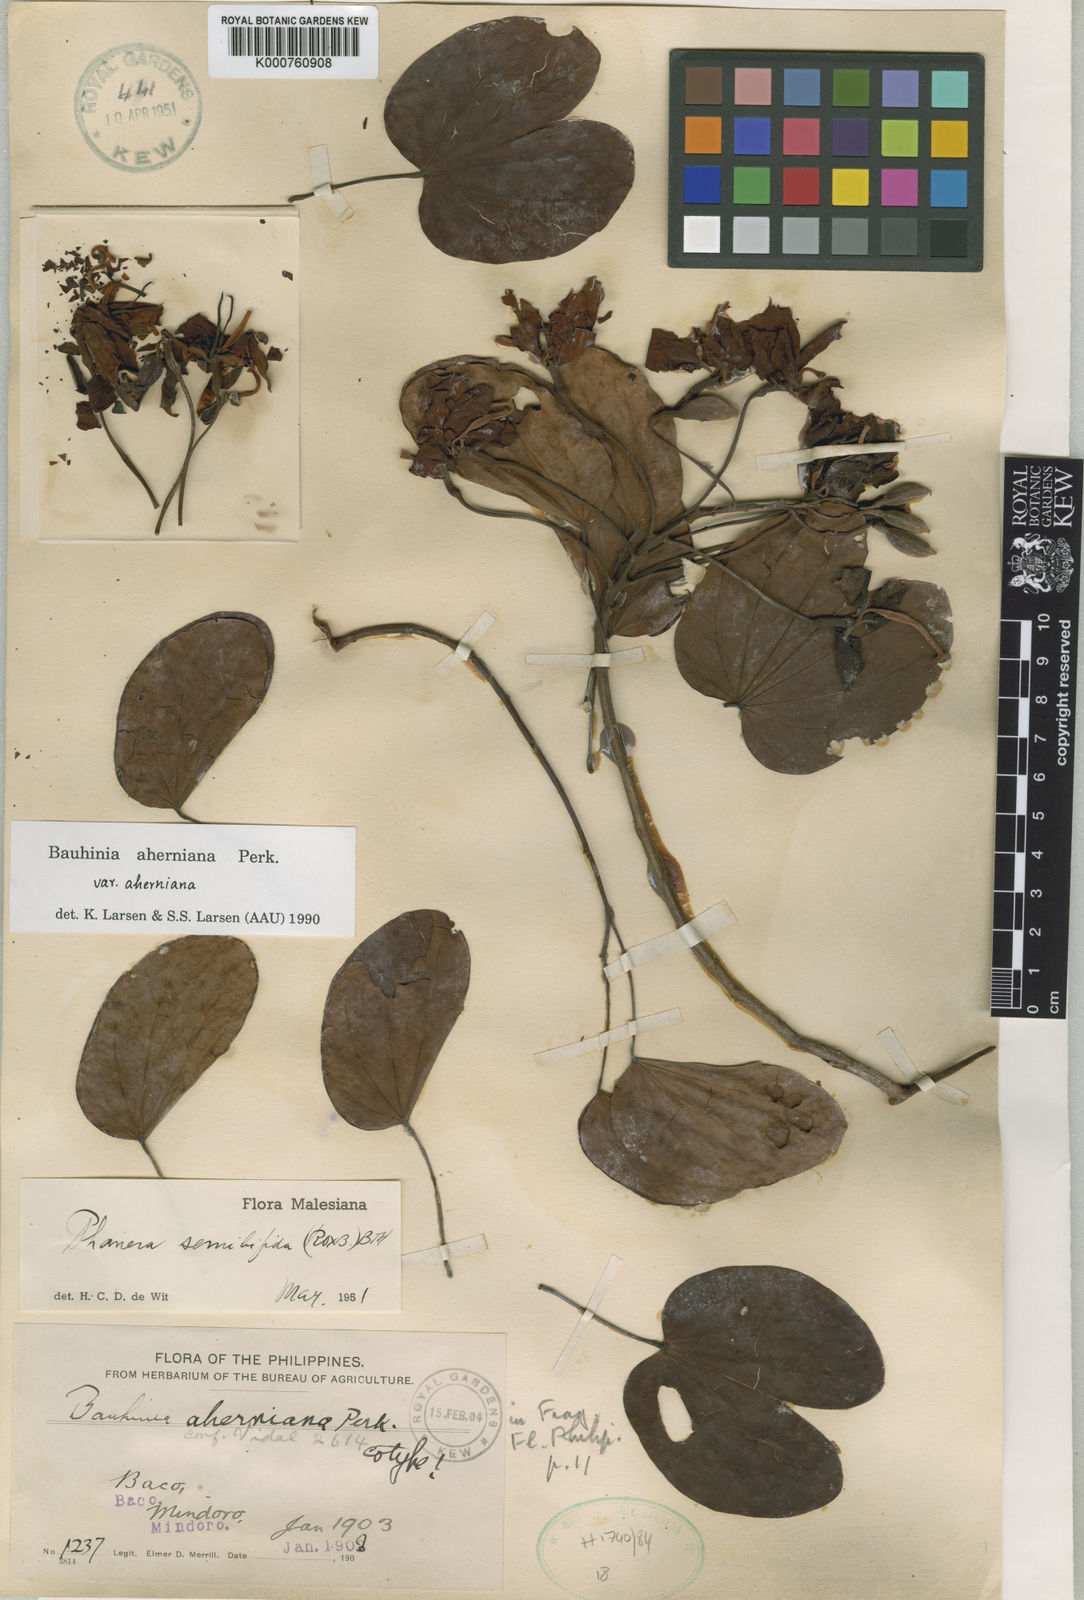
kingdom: Plantae
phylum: Tracheophyta
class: Magnoliopsida
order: Fabales
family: Fabaceae
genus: Phanera
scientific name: Phanera aherniana
